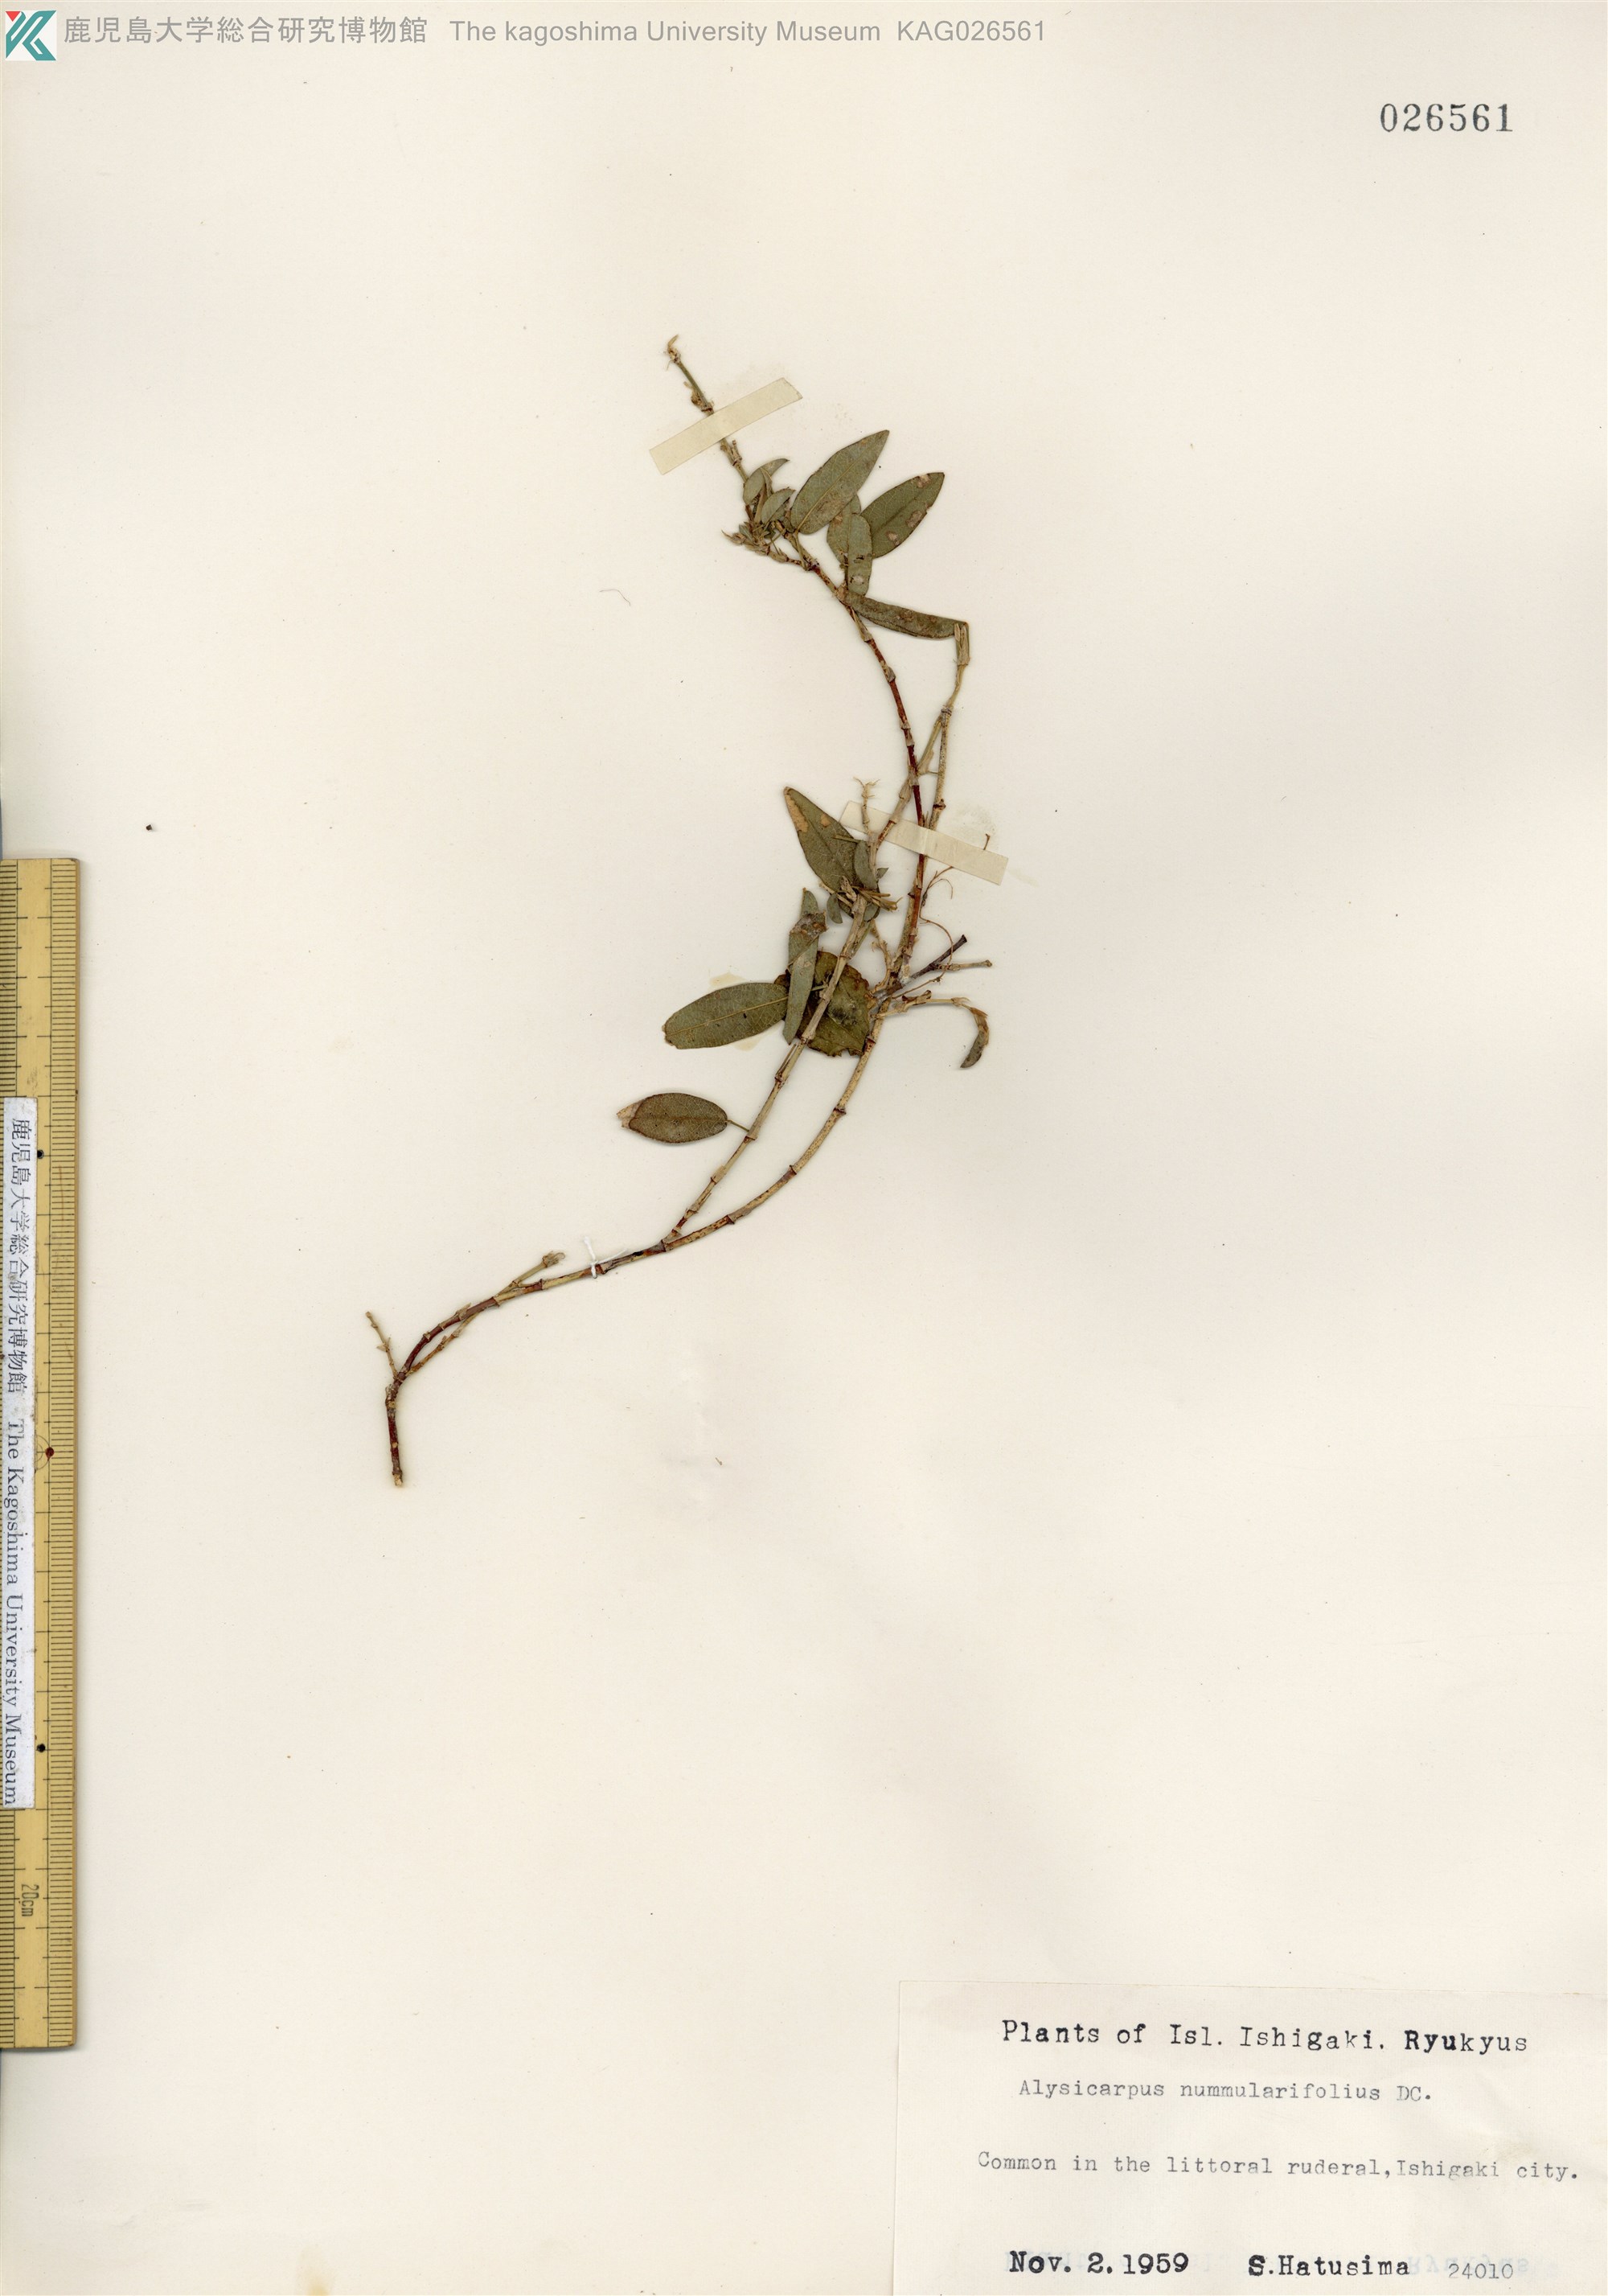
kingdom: Plantae
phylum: Tracheophyta
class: Magnoliopsida
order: Fabales
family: Fabaceae
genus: Alysicarpus
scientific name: Alysicarpus vaginalis
